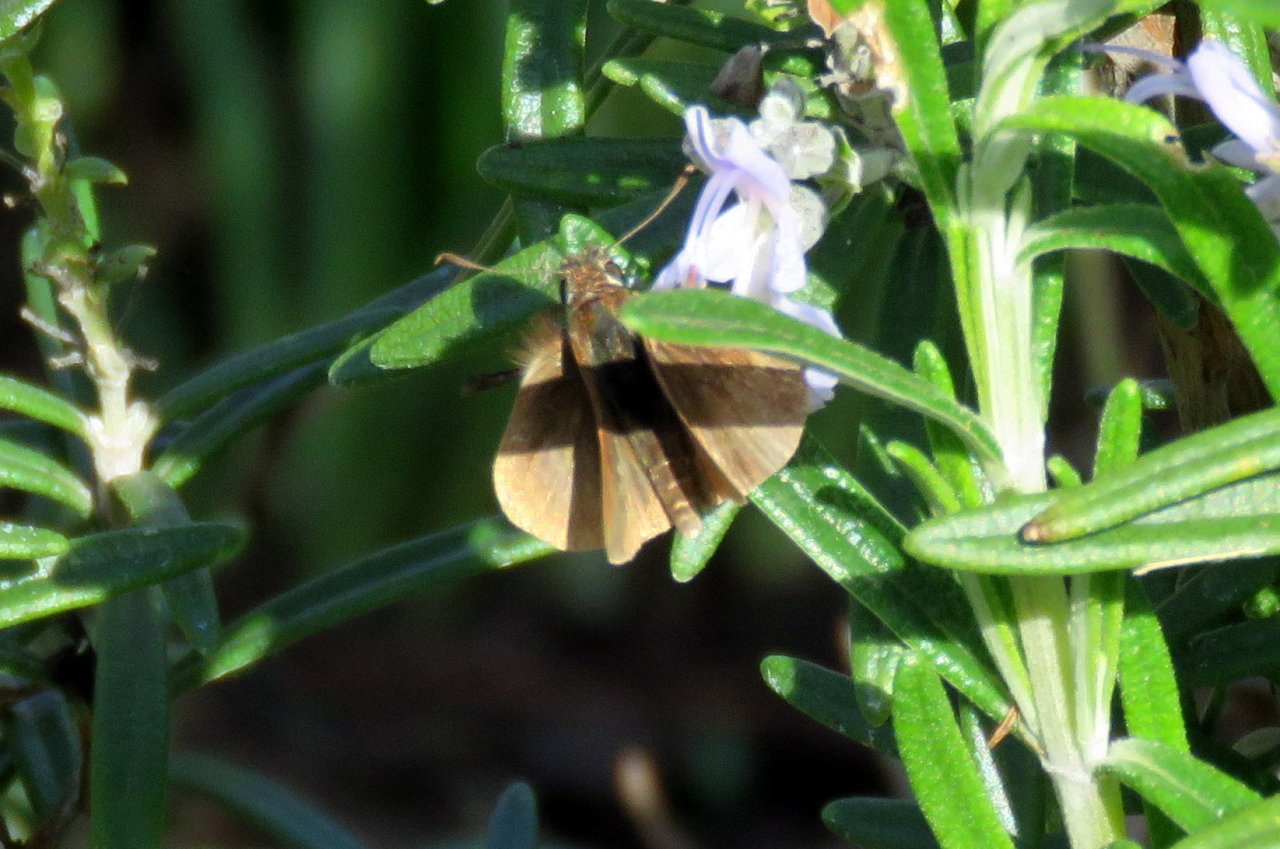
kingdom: Animalia
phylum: Arthropoda
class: Insecta
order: Lepidoptera
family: Hesperiidae
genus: Polites
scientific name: Polites themistocles
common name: Tawny-edged Skipper
